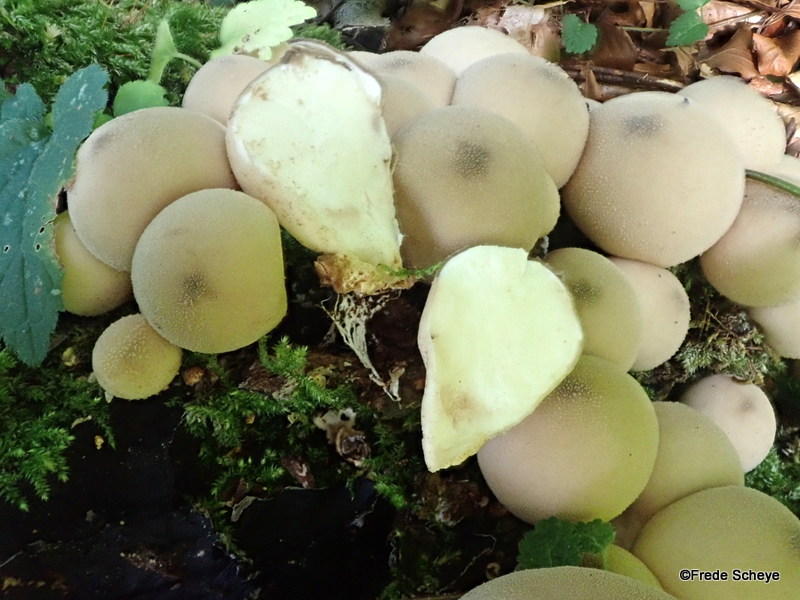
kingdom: Fungi
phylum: Basidiomycota
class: Agaricomycetes
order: Agaricales
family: Lycoperdaceae
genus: Apioperdon
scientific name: Apioperdon pyriforme
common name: pære-støvbold
